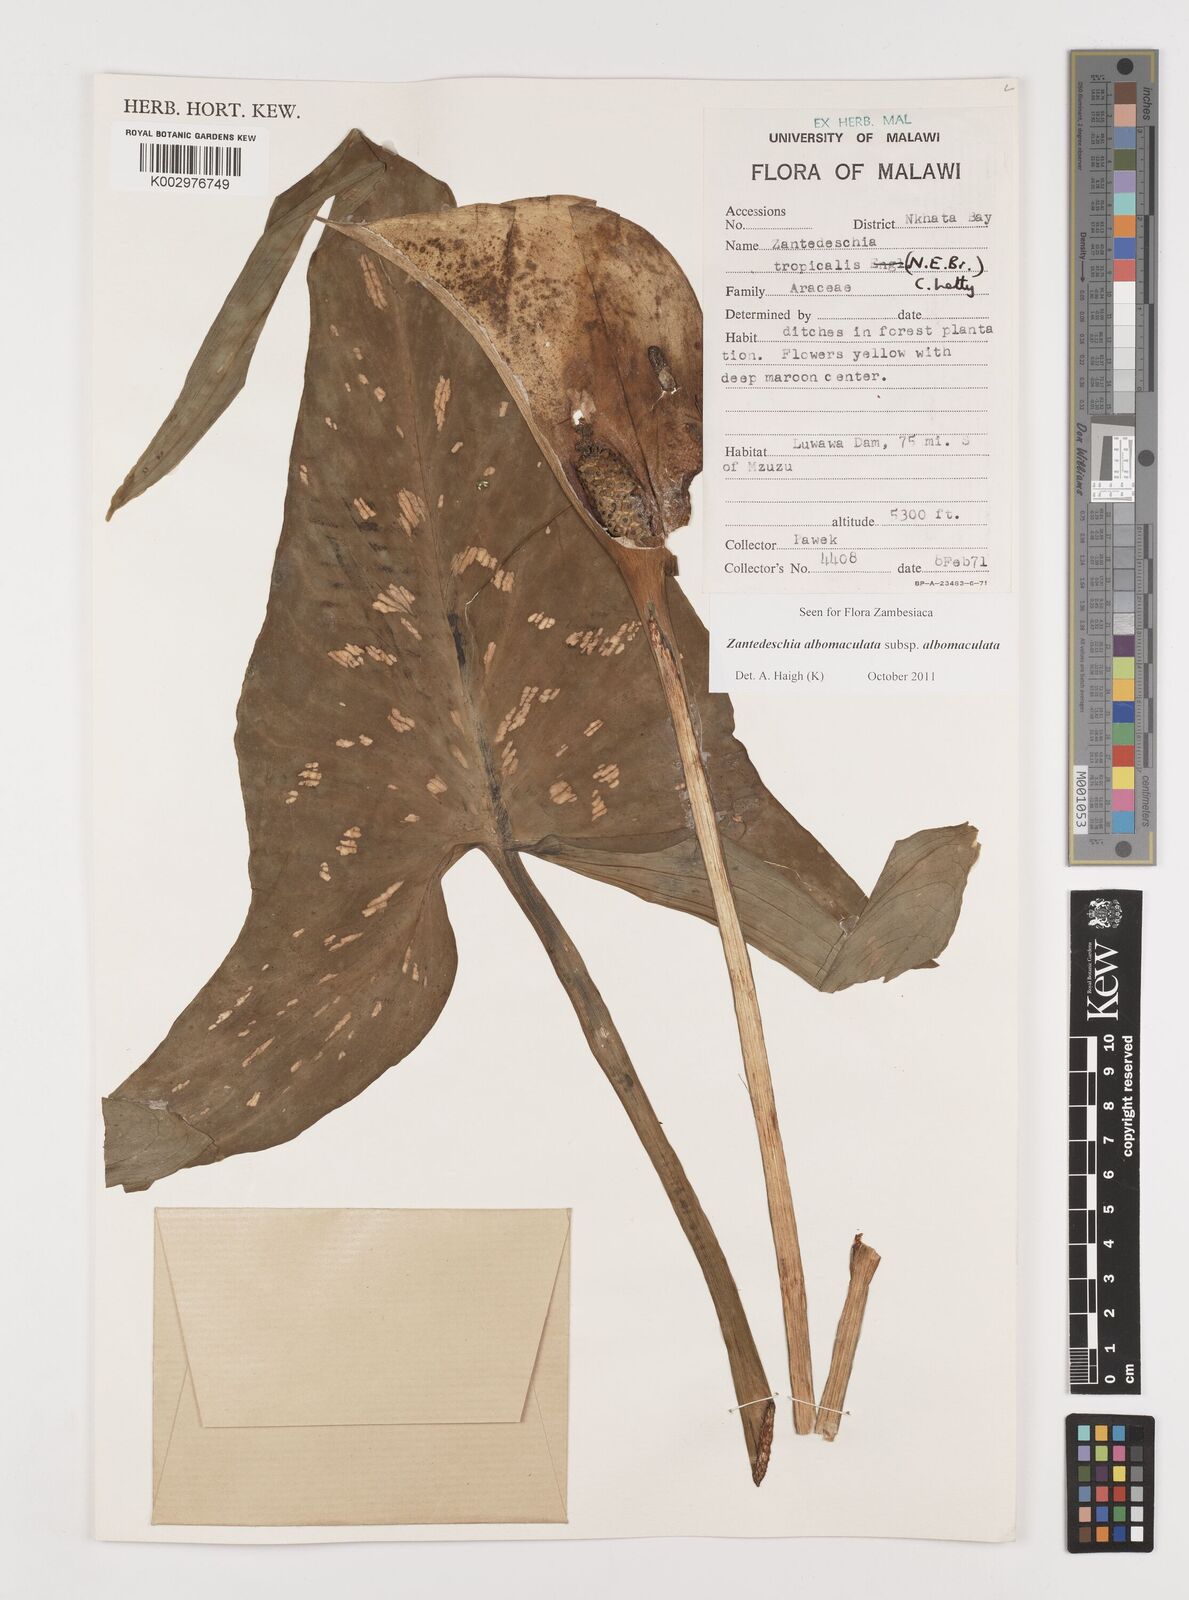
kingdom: Plantae
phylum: Tracheophyta
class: Liliopsida
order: Alismatales
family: Araceae
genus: Zantedeschia
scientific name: Zantedeschia albomaculata
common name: Spotted calla lily
